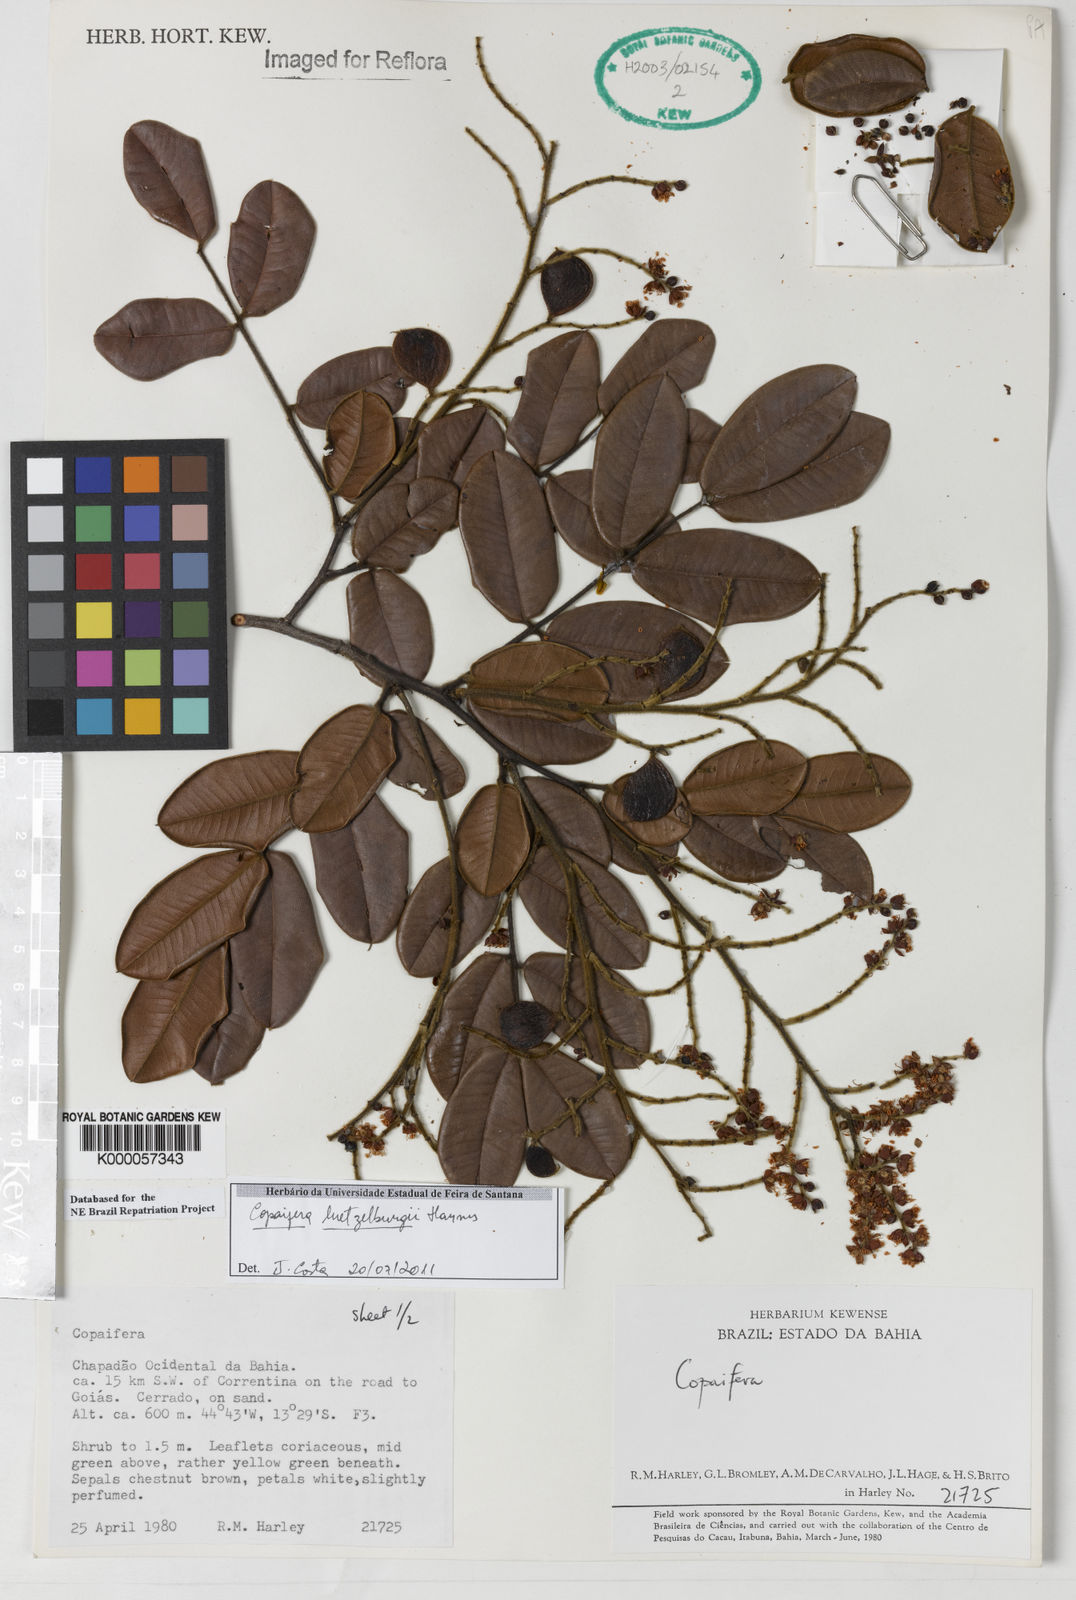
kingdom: Plantae
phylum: Tracheophyta
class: Magnoliopsida
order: Fabales
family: Fabaceae
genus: Copaifera
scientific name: Copaifera luetzelburgii
